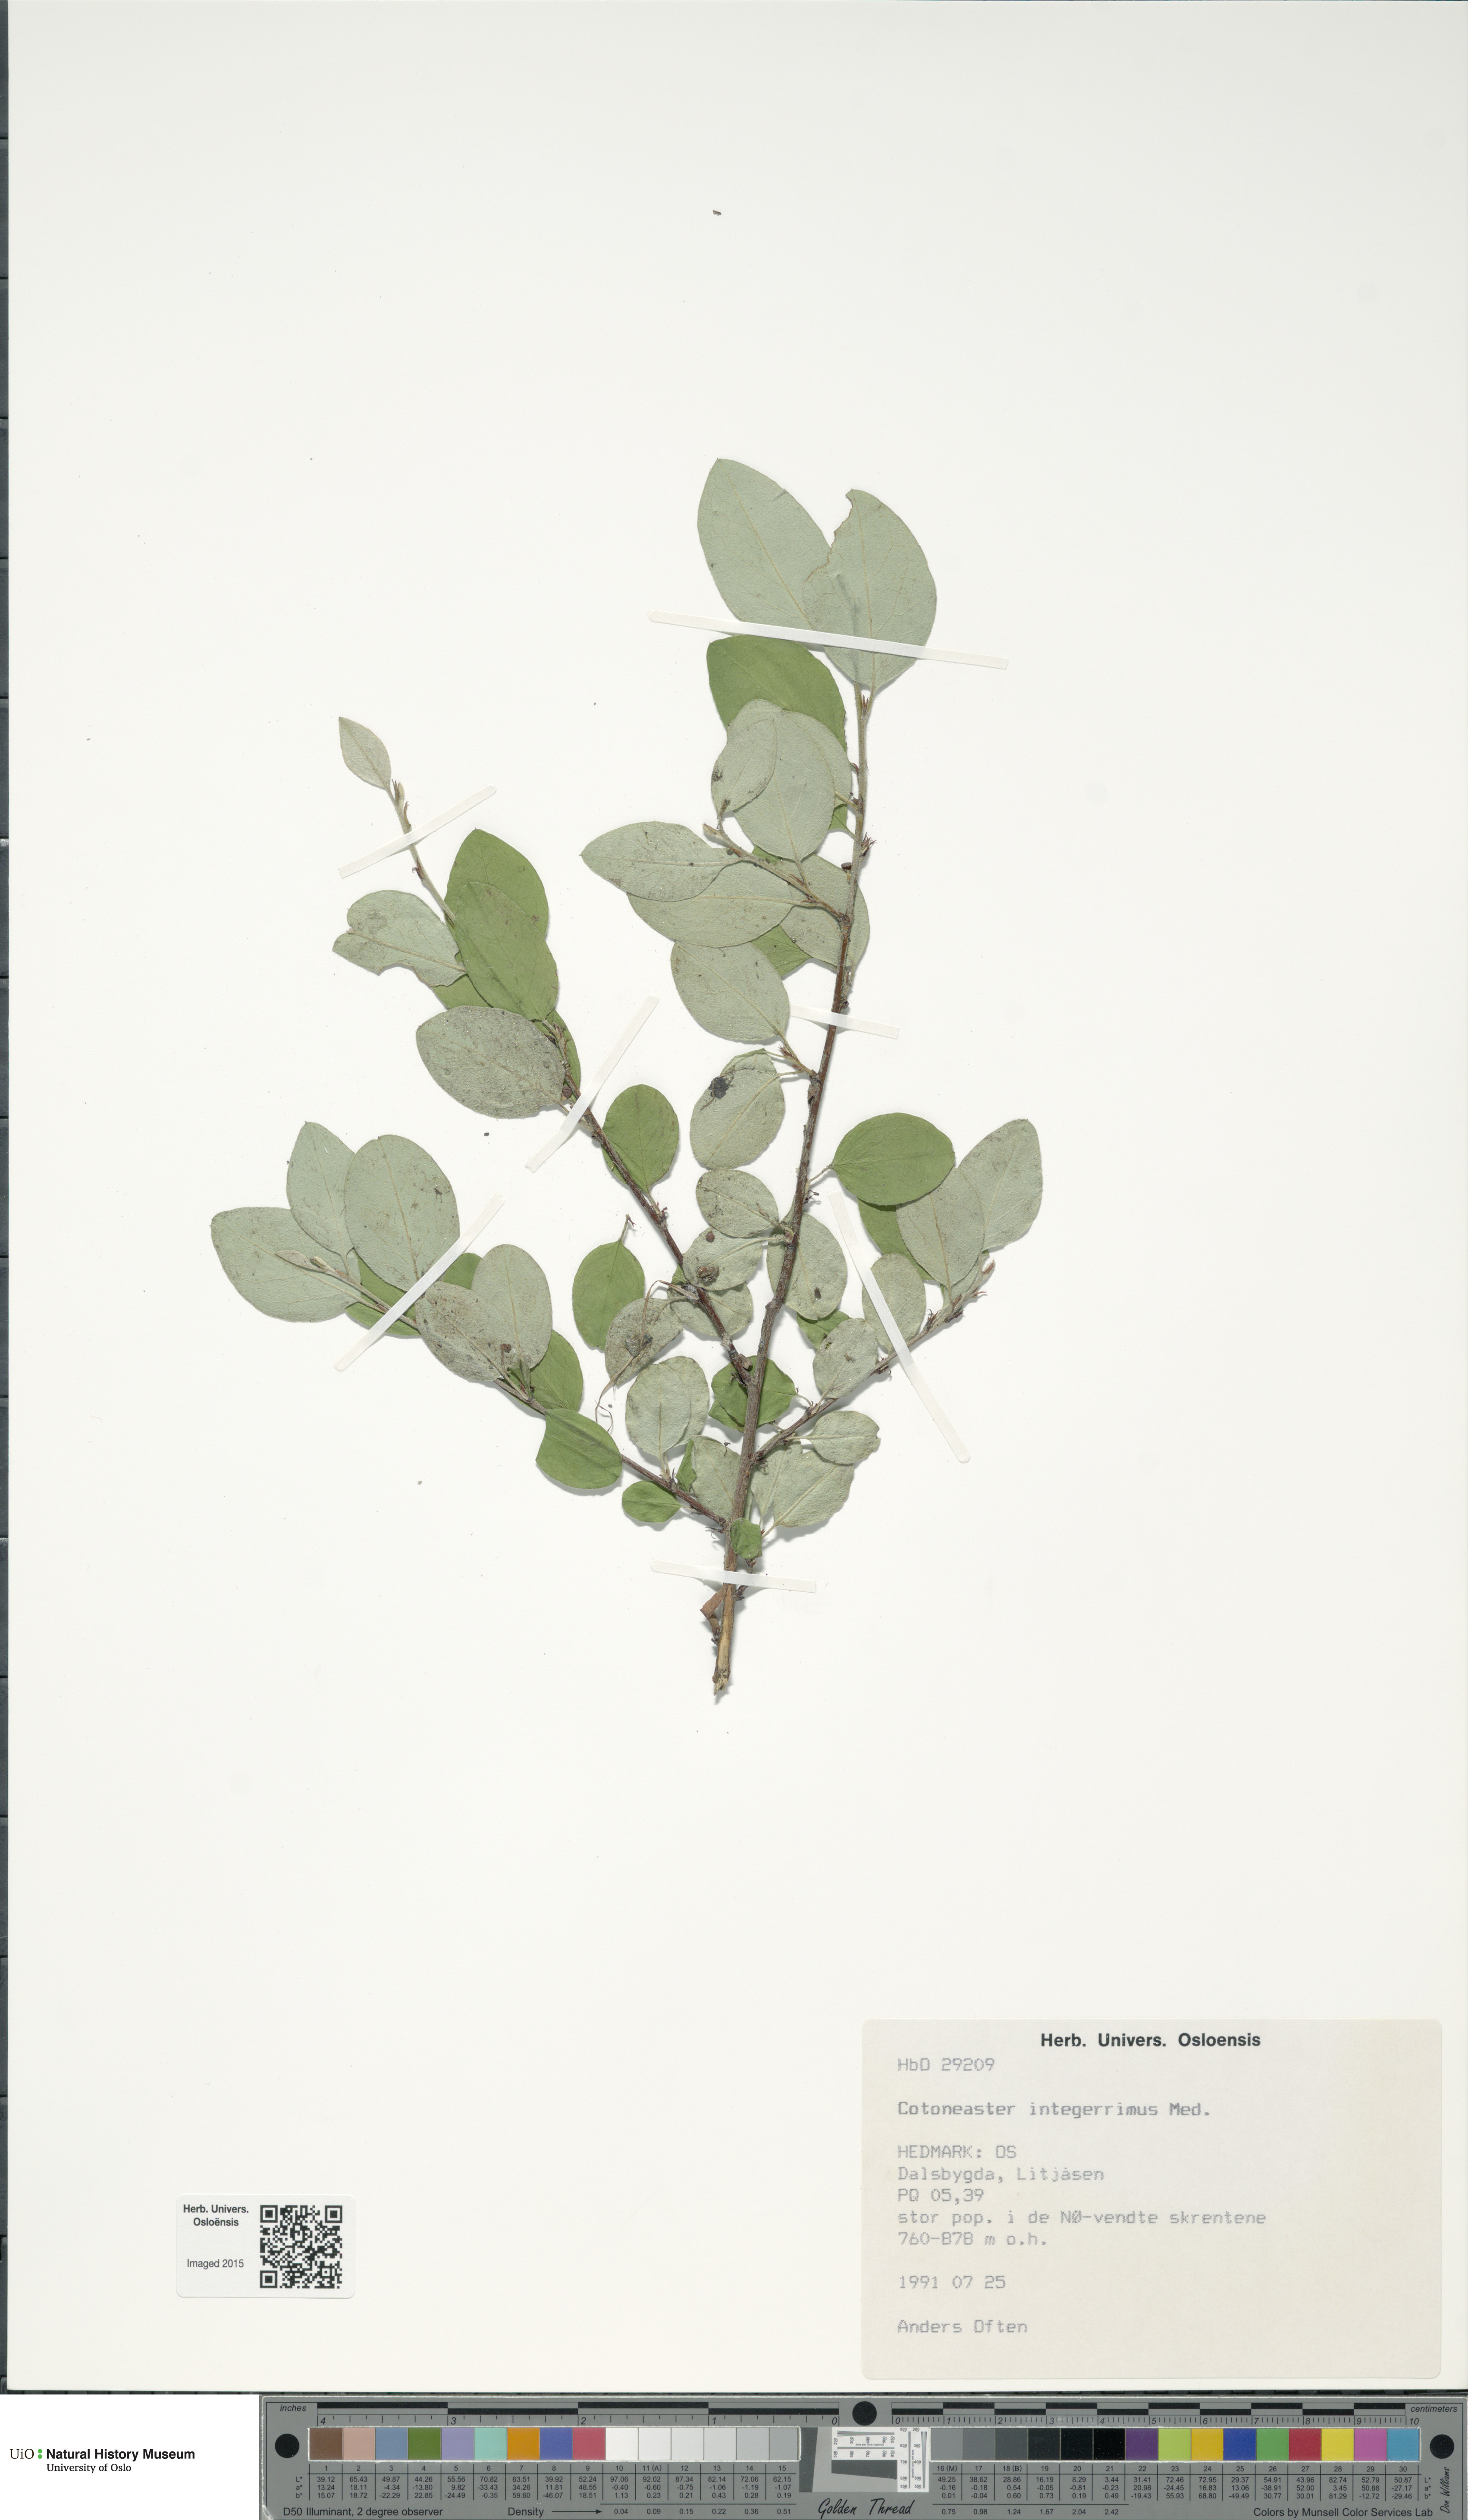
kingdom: Plantae
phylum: Tracheophyta
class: Magnoliopsida
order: Rosales
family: Rosaceae
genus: Cotoneaster
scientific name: Cotoneaster integerrimus
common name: Wild cotoneaster
